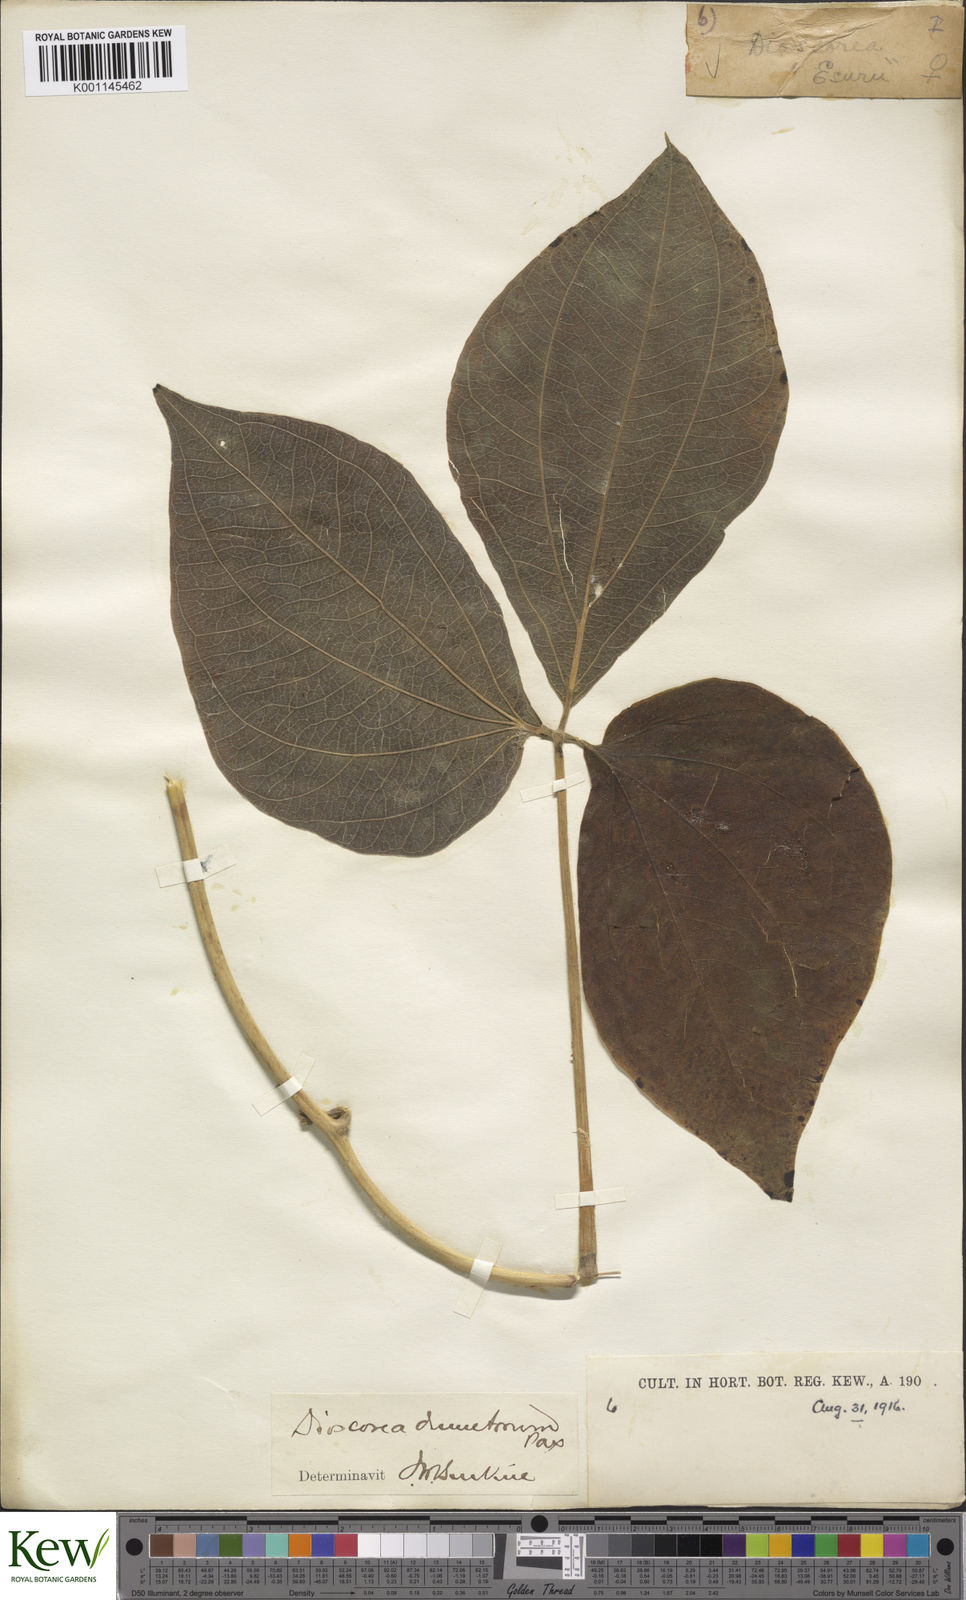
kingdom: Plantae
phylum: Tracheophyta
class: Liliopsida
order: Dioscoreales
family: Dioscoreaceae
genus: Dioscorea
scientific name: Dioscorea dumetorum
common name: African bitter yam
